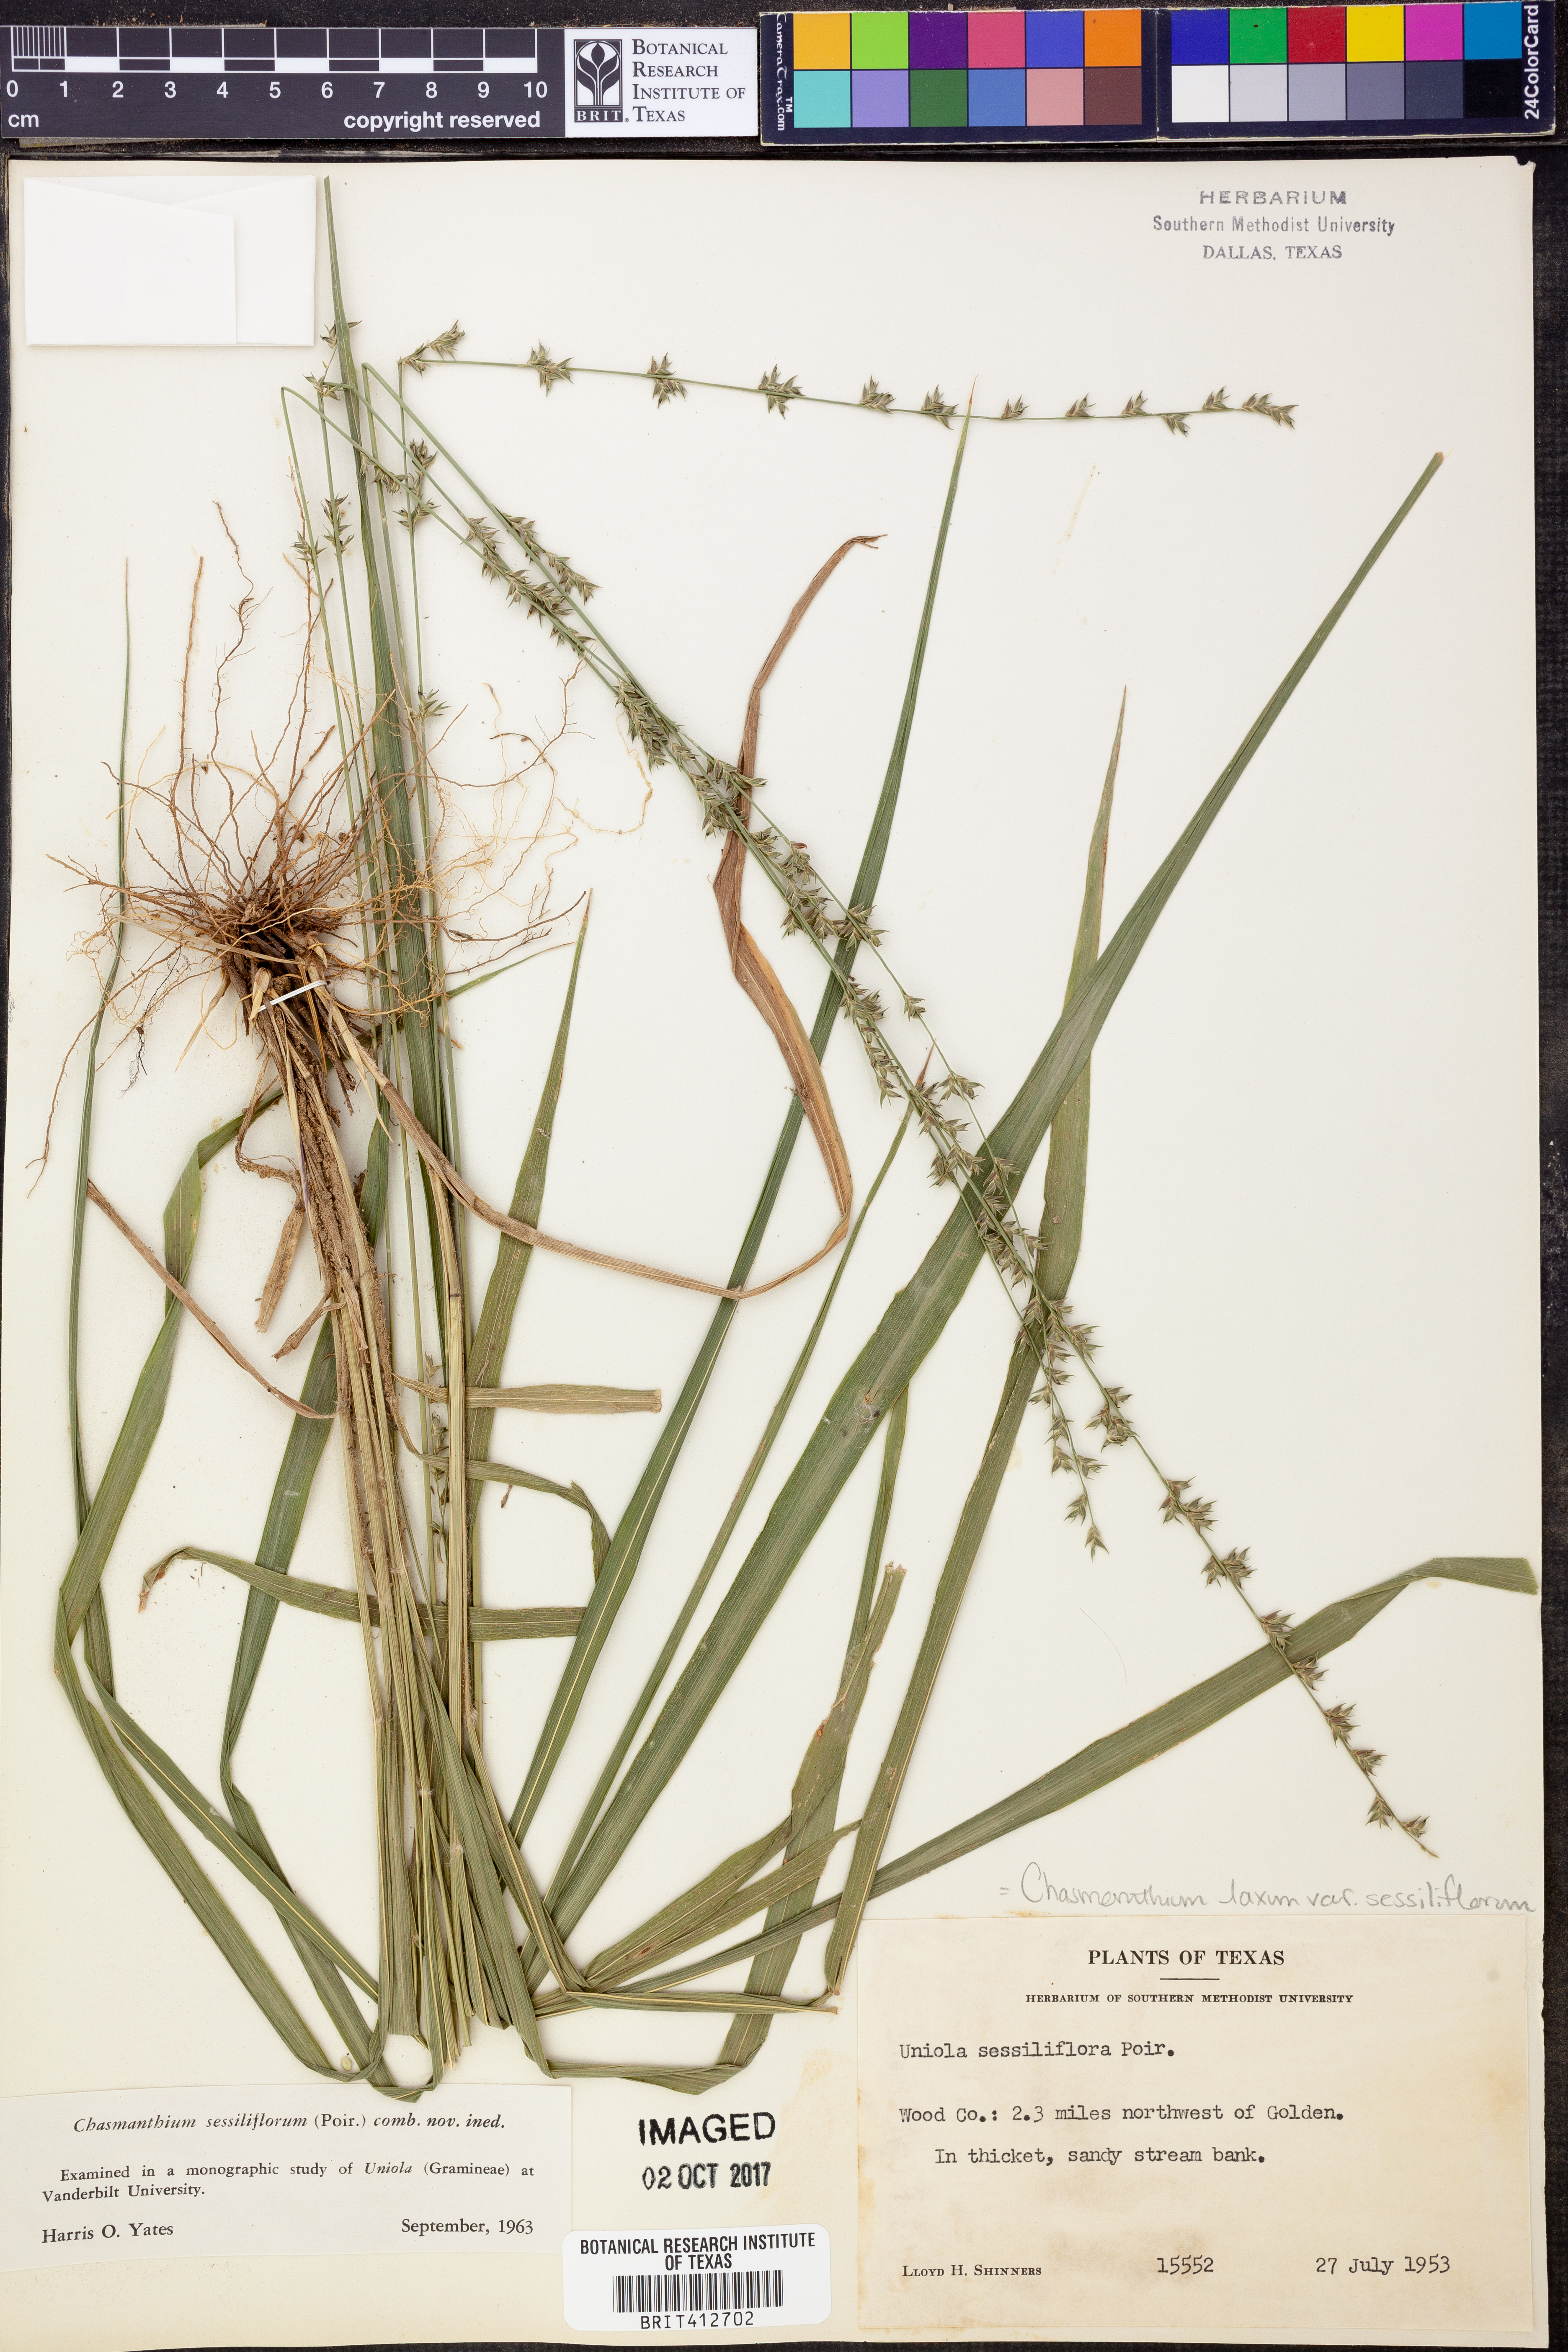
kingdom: Plantae
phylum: Tracheophyta
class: Liliopsida
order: Poales
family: Poaceae
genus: Chasmanthium
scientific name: Chasmanthium laxum
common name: Slender chasmanthium
